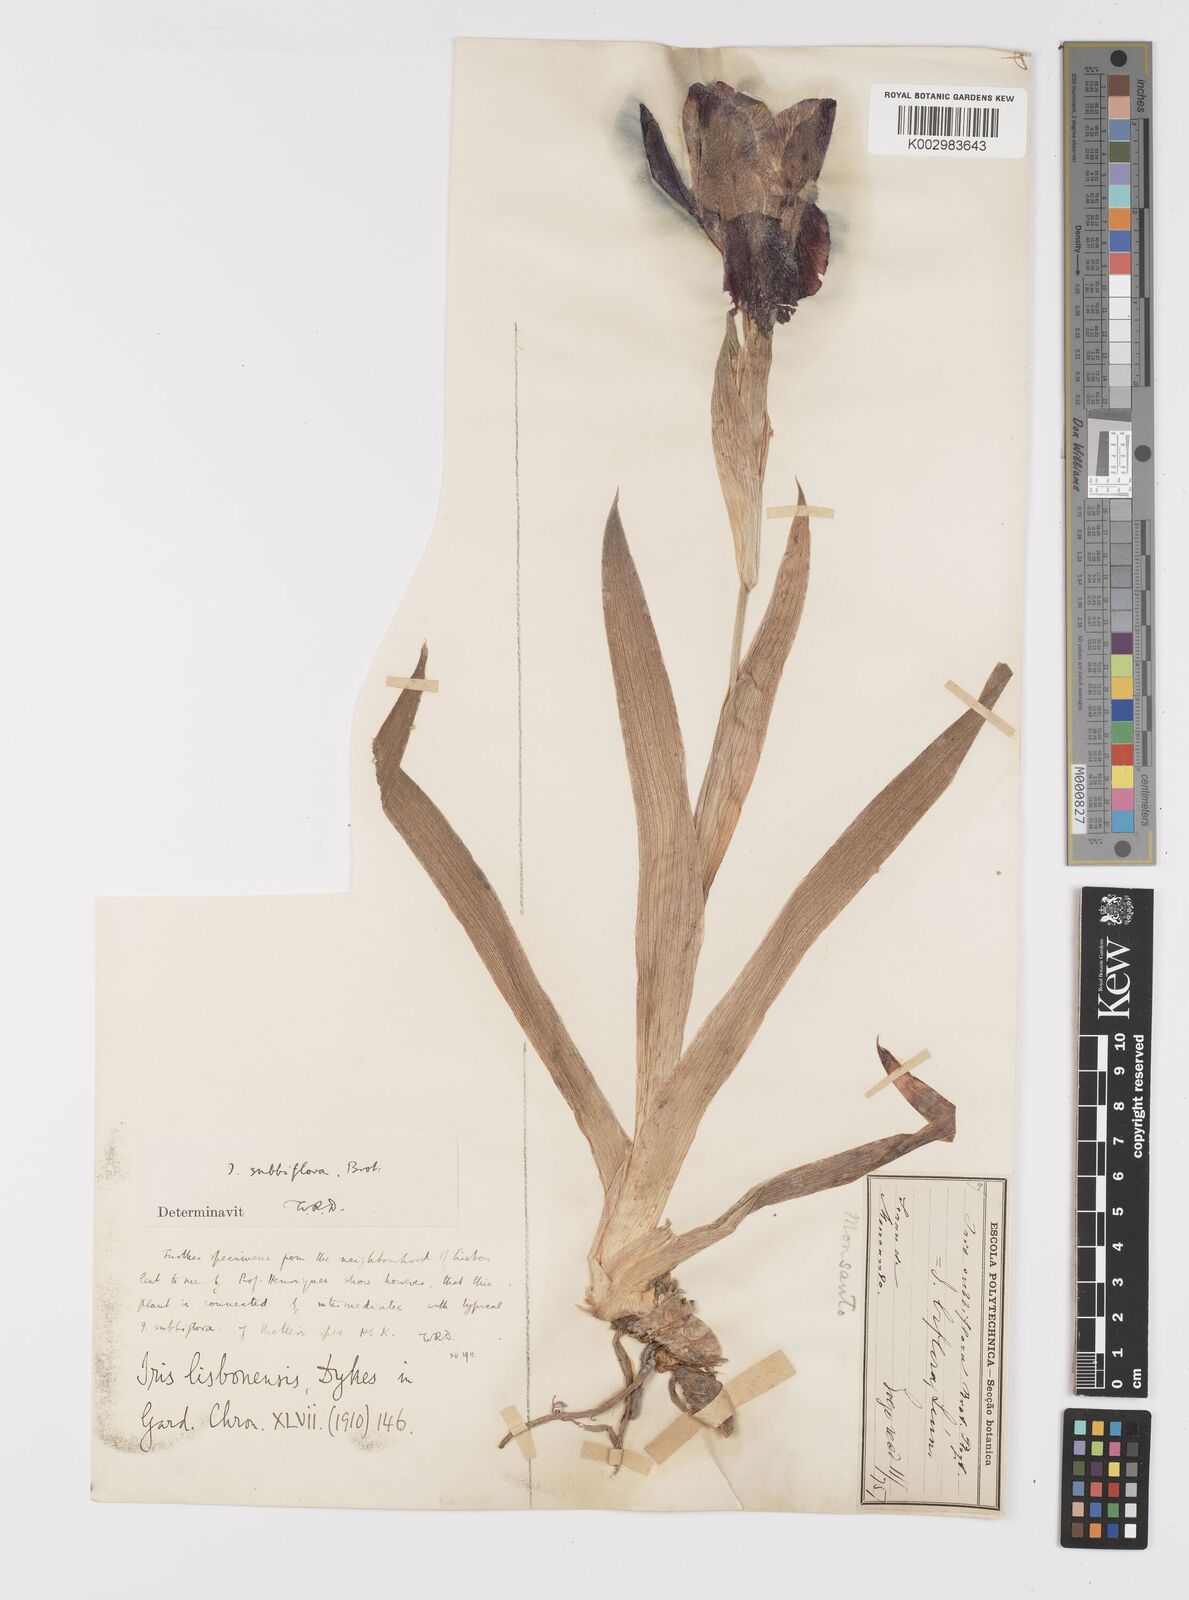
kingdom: Plantae
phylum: Tracheophyta
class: Liliopsida
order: Asparagales
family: Iridaceae
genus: Iris
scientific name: Iris lutescens
